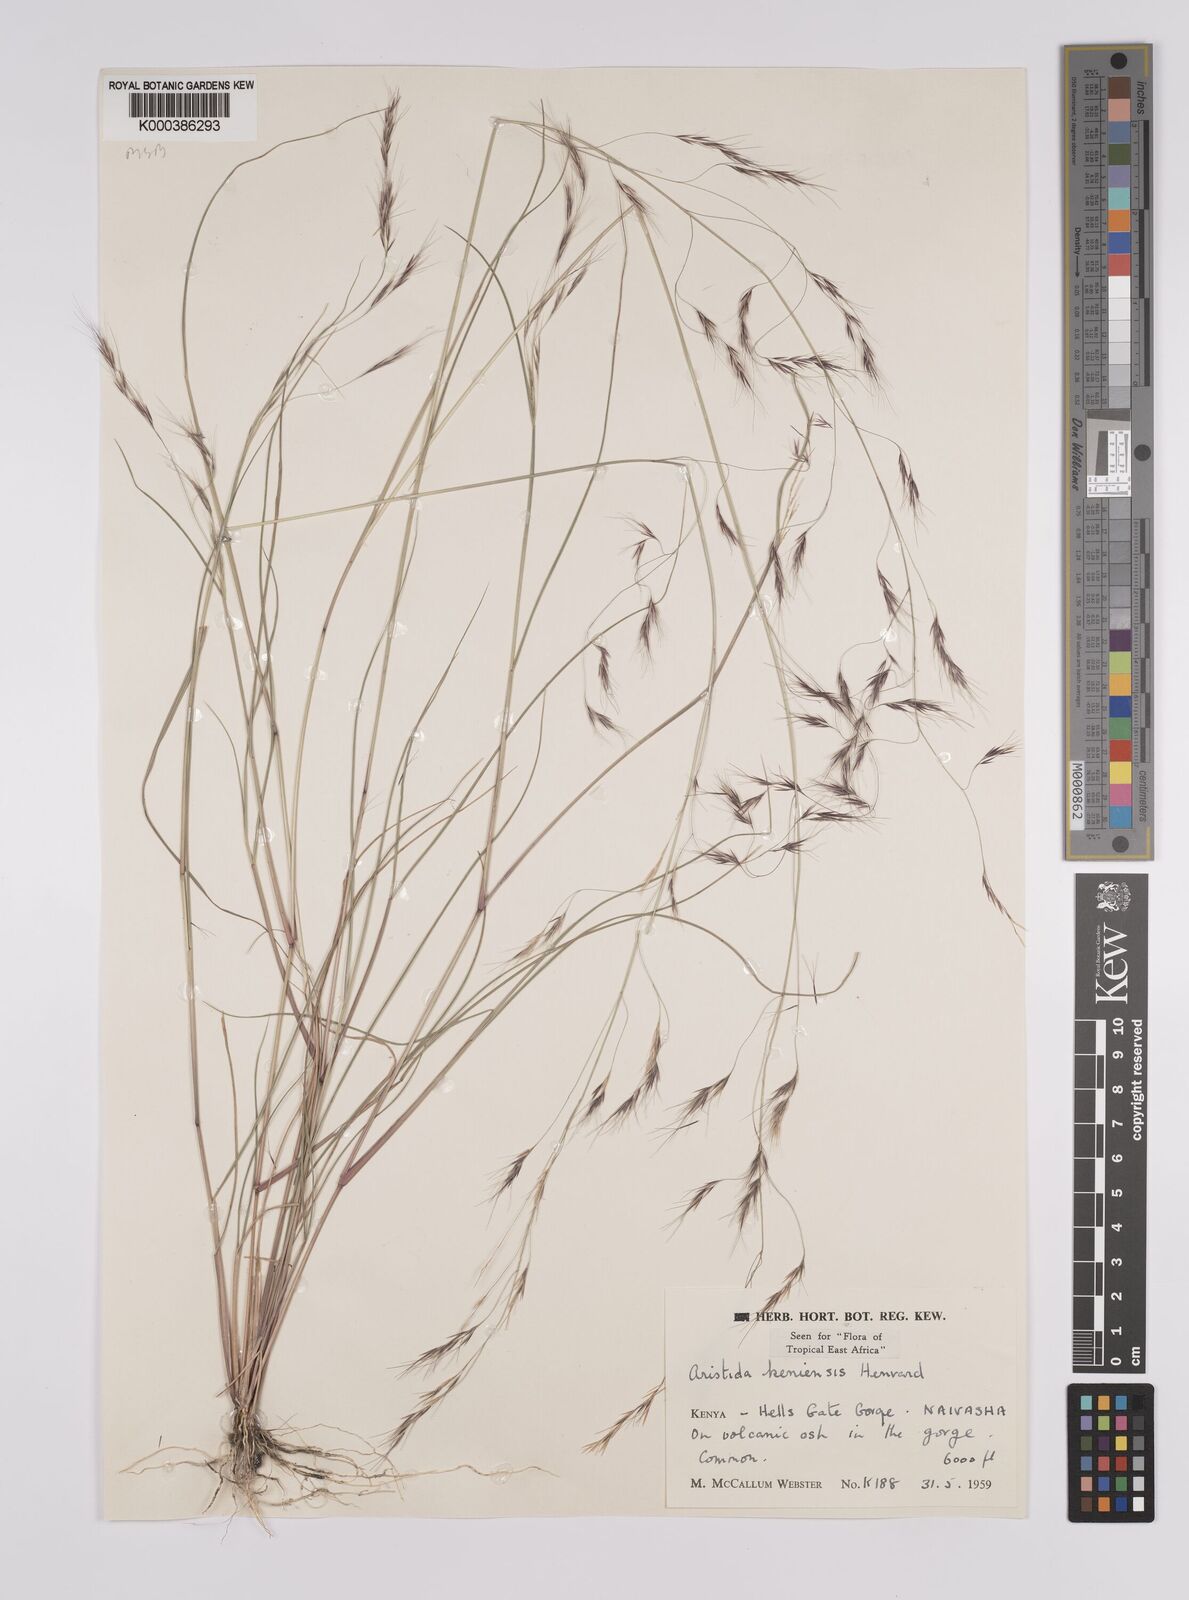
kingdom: Plantae
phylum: Tracheophyta
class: Liliopsida
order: Poales
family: Poaceae
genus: Aristida
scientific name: Aristida kenyensis
